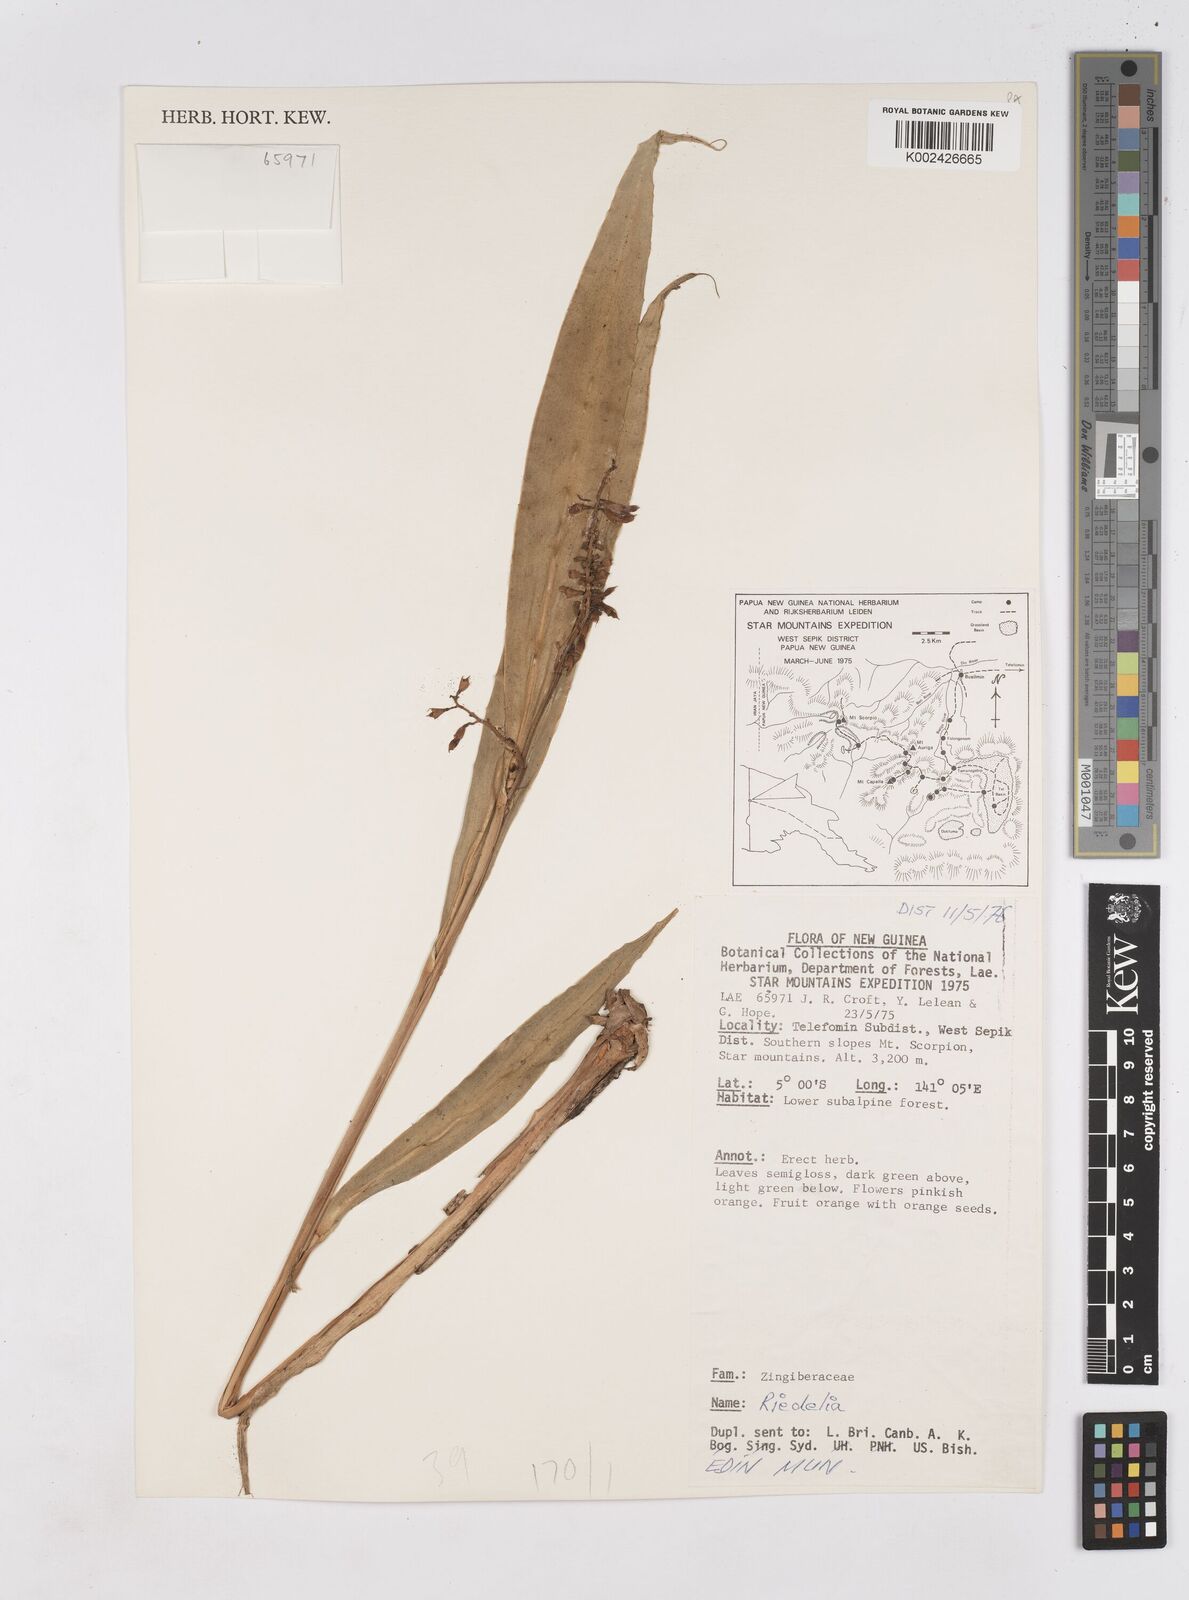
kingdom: Plantae
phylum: Tracheophyta
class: Liliopsida
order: Zingiberales
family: Zingiberaceae
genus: Riedelia
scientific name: Riedelia
